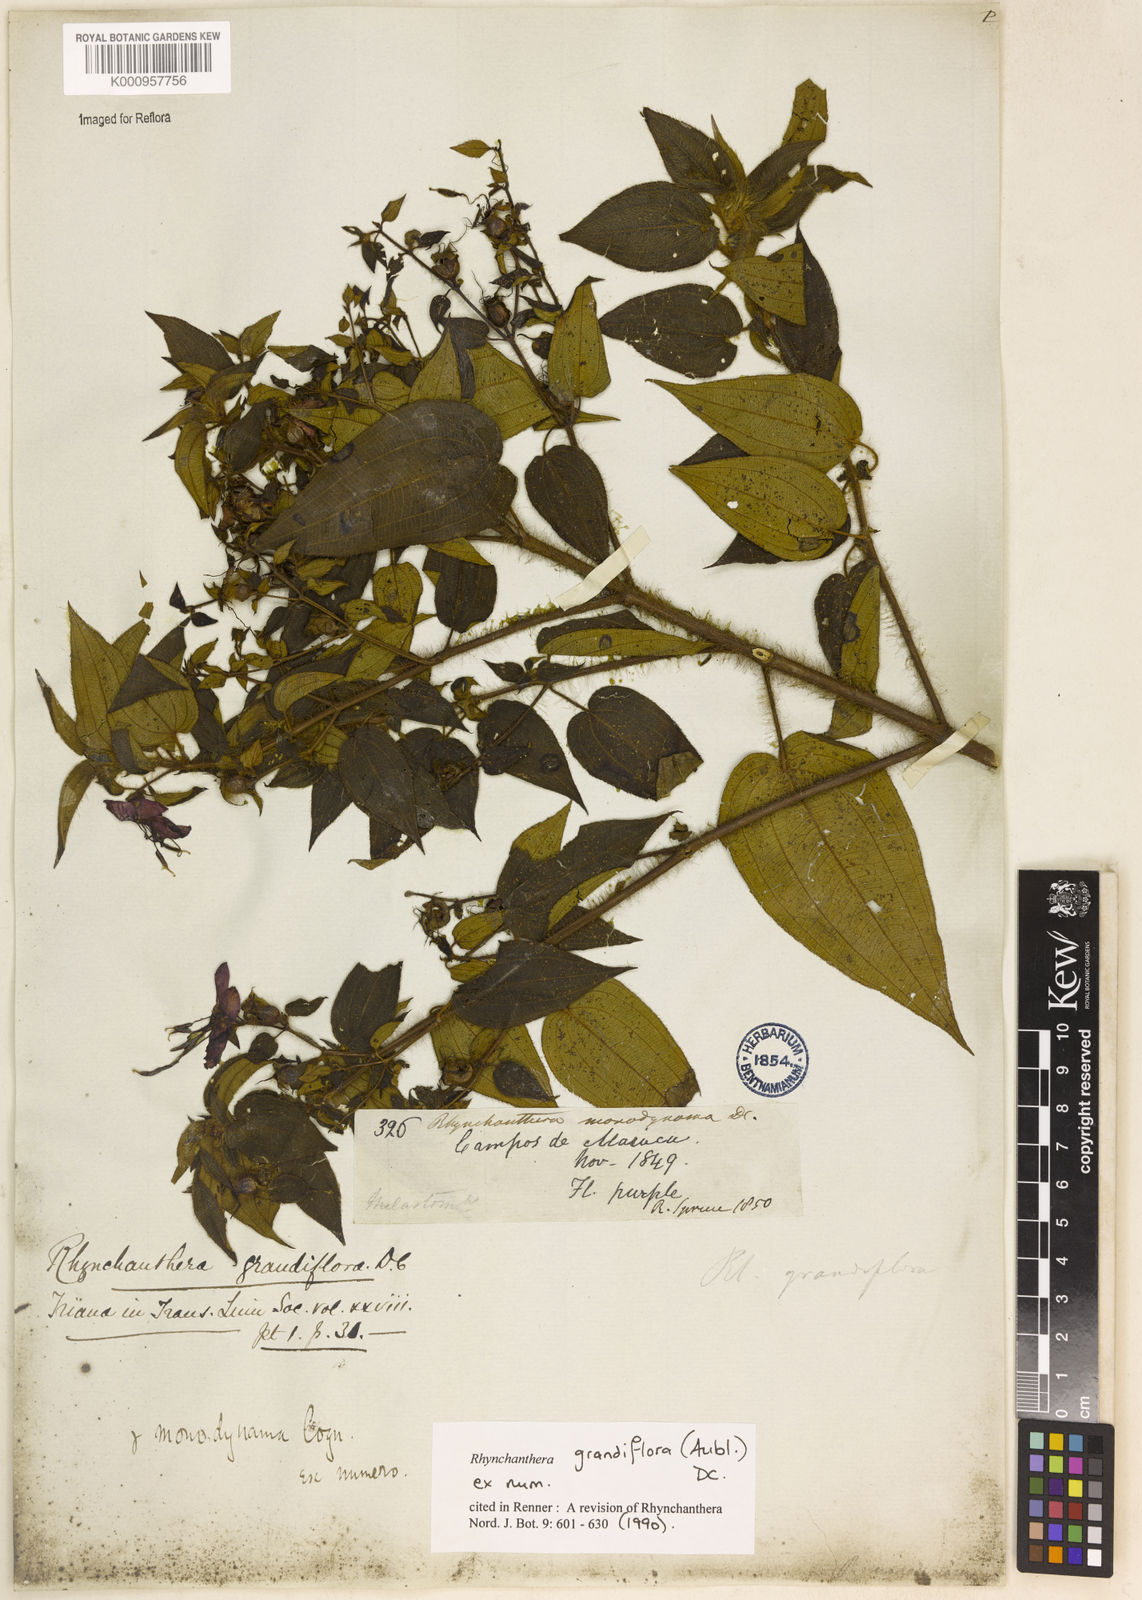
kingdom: Plantae
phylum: Tracheophyta
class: Magnoliopsida
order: Myrtales
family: Melastomataceae
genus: Rhynchanthera
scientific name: Rhynchanthera grandiflora
